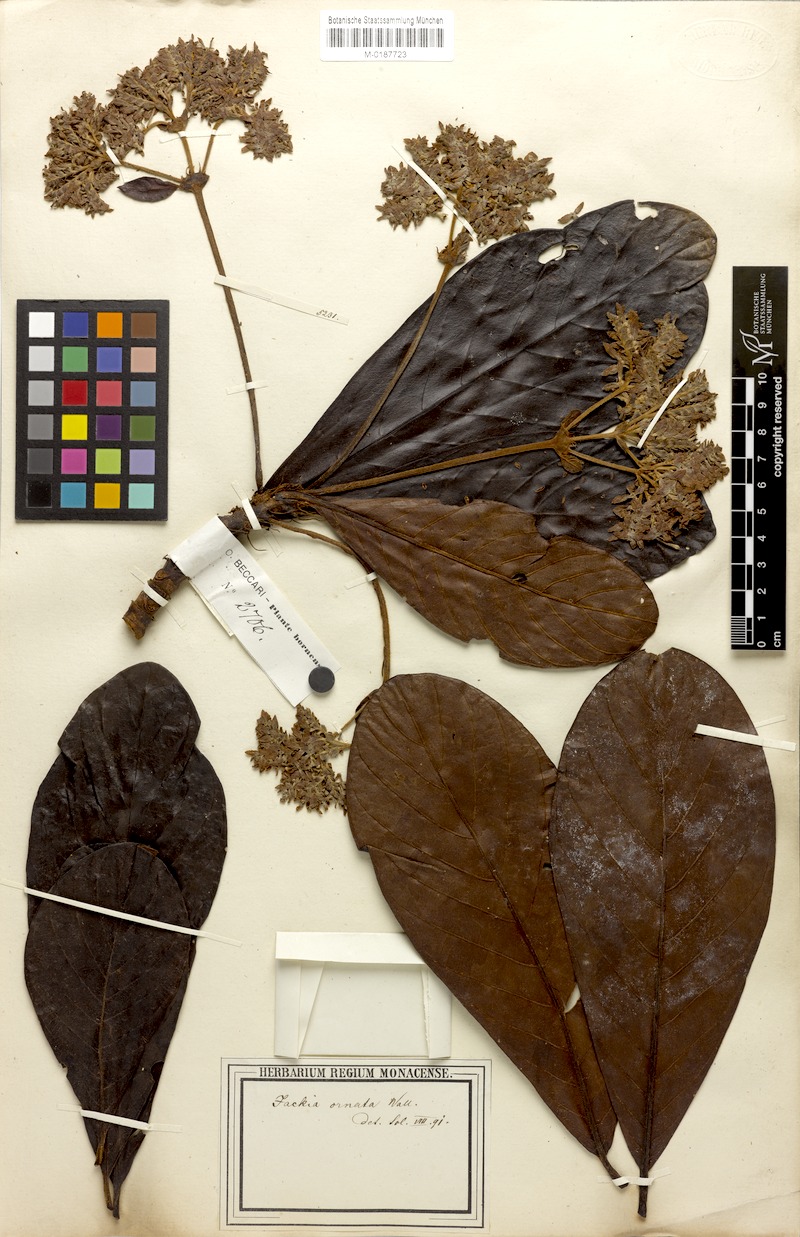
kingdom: Plantae
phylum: Tracheophyta
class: Magnoliopsida
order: Gentianales
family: Rubiaceae
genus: Jackiopsis
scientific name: Jackiopsis ornata
